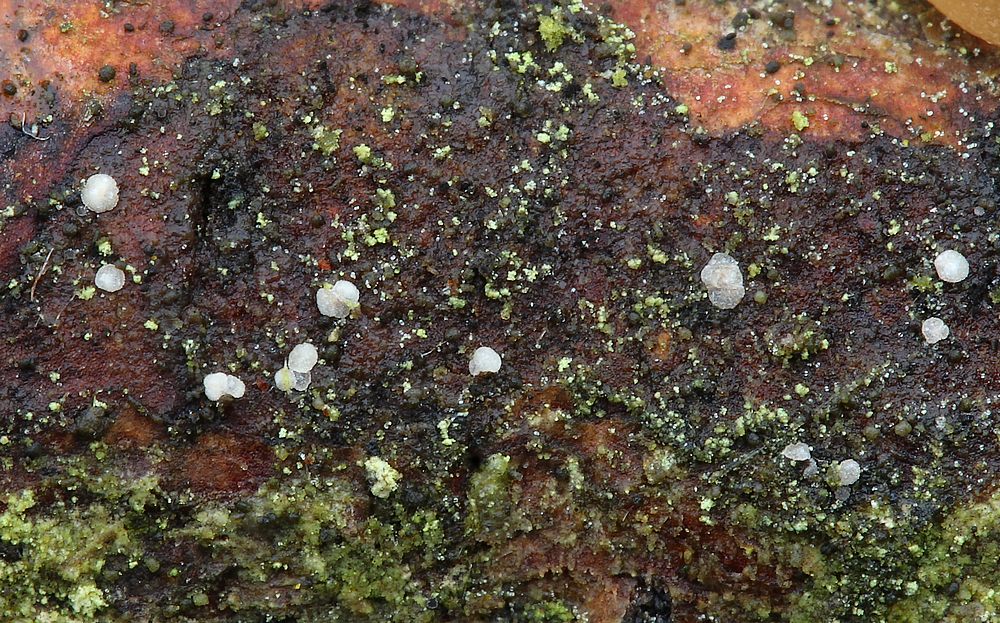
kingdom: Fungi
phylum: Ascomycota
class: Leotiomycetes
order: Helotiales
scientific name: Helotiales
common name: stilkskiveordenen
